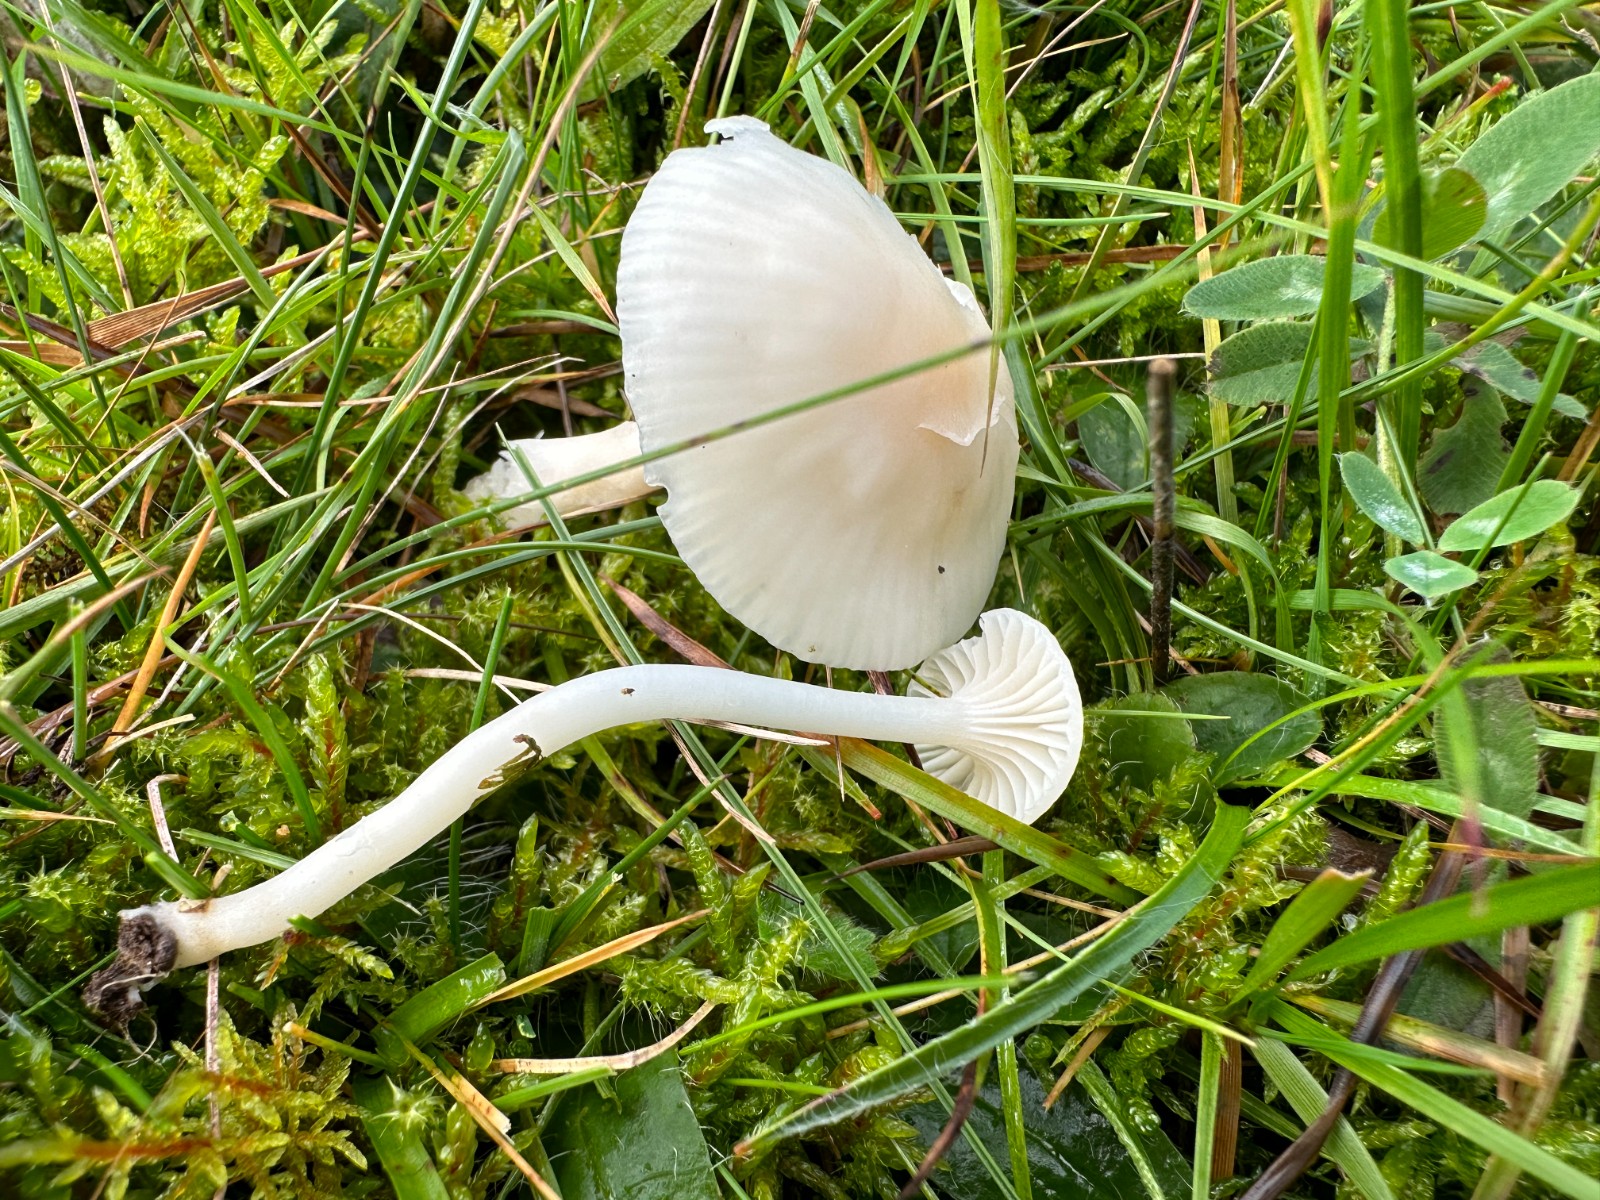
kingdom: Fungi
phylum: Basidiomycota
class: Agaricomycetes
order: Agaricales
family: Hygrophoraceae
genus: Cuphophyllus
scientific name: Cuphophyllus virgineus
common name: snehvid vokshat
